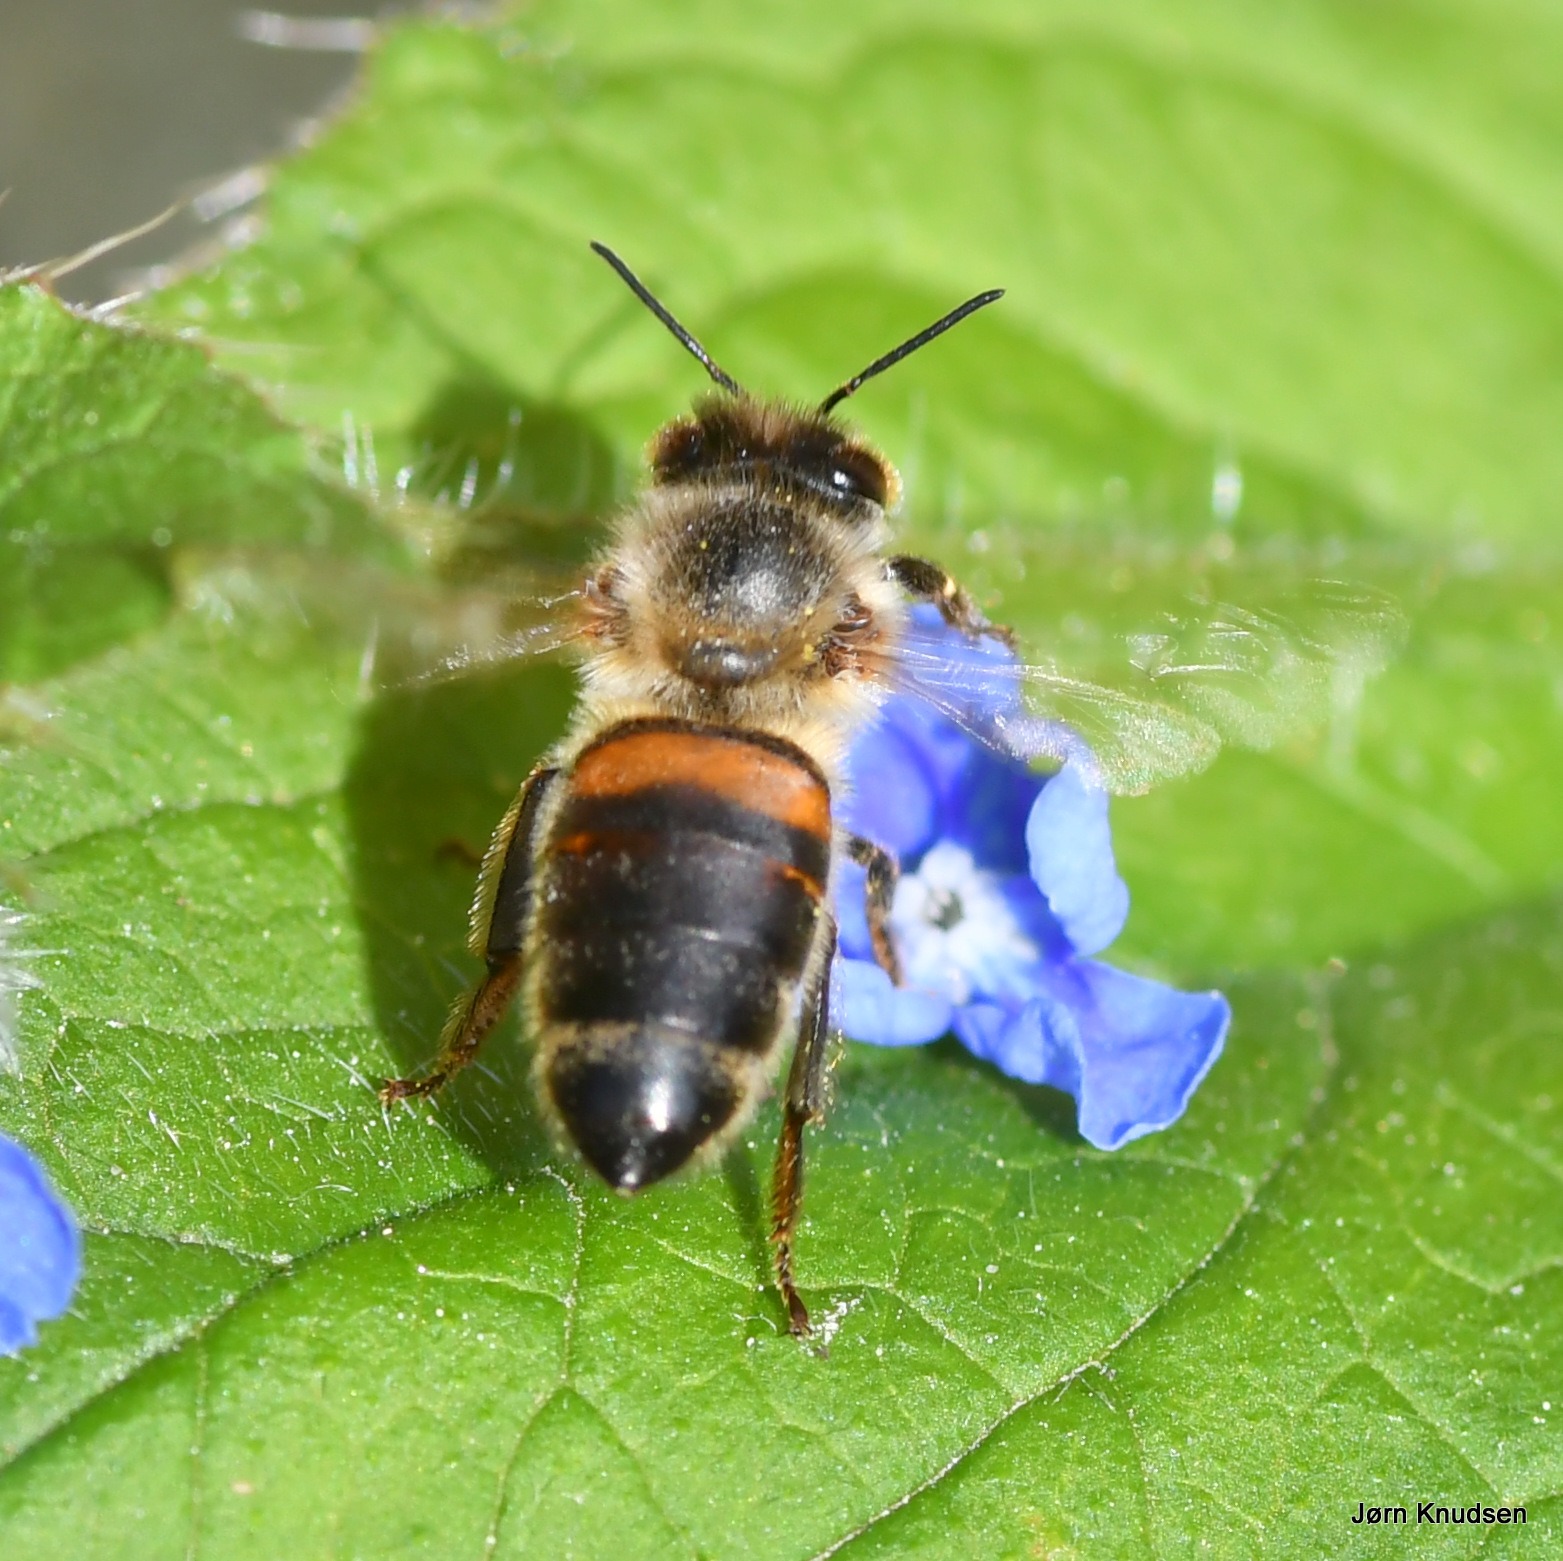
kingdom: Animalia
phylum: Arthropoda
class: Insecta
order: Hymenoptera
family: Apidae
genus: Apis
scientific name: Apis mellifera
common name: Honningbi
